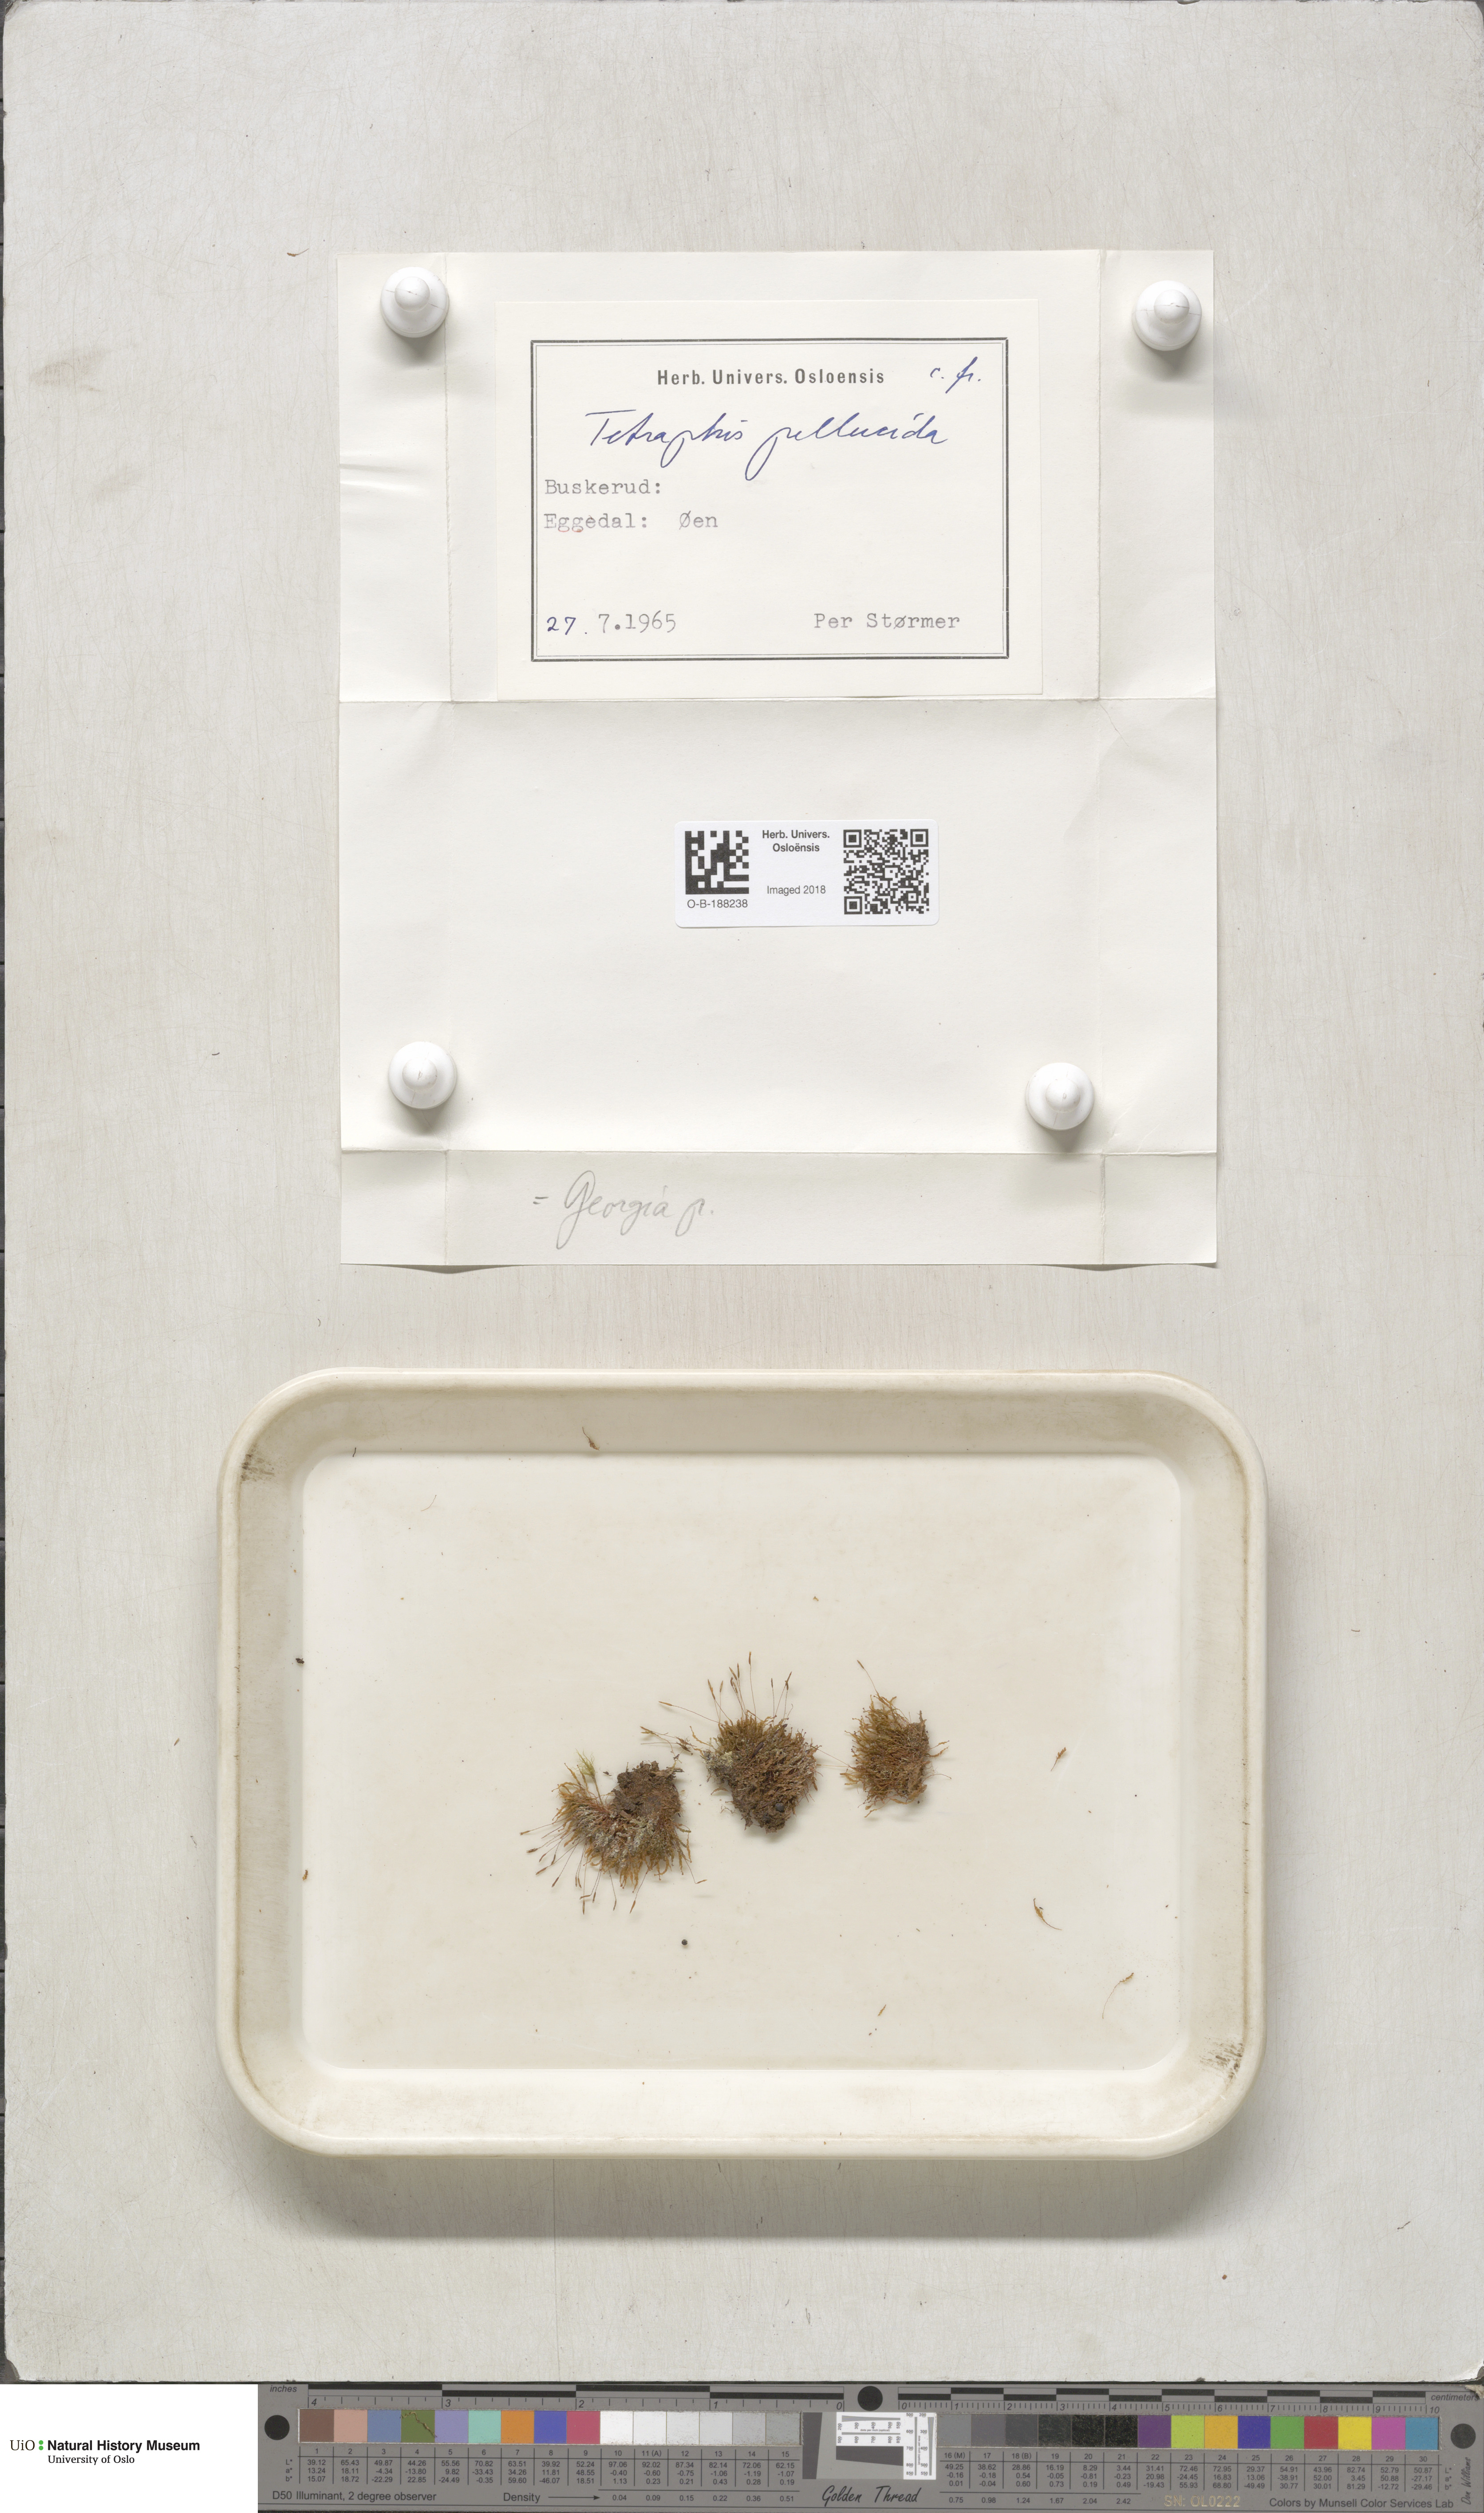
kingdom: Plantae
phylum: Bryophyta
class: Polytrichopsida
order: Tetraphidales
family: Tetraphidaceae
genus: Tetraphis
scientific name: Tetraphis pellucida
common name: Common four-toothed moss
